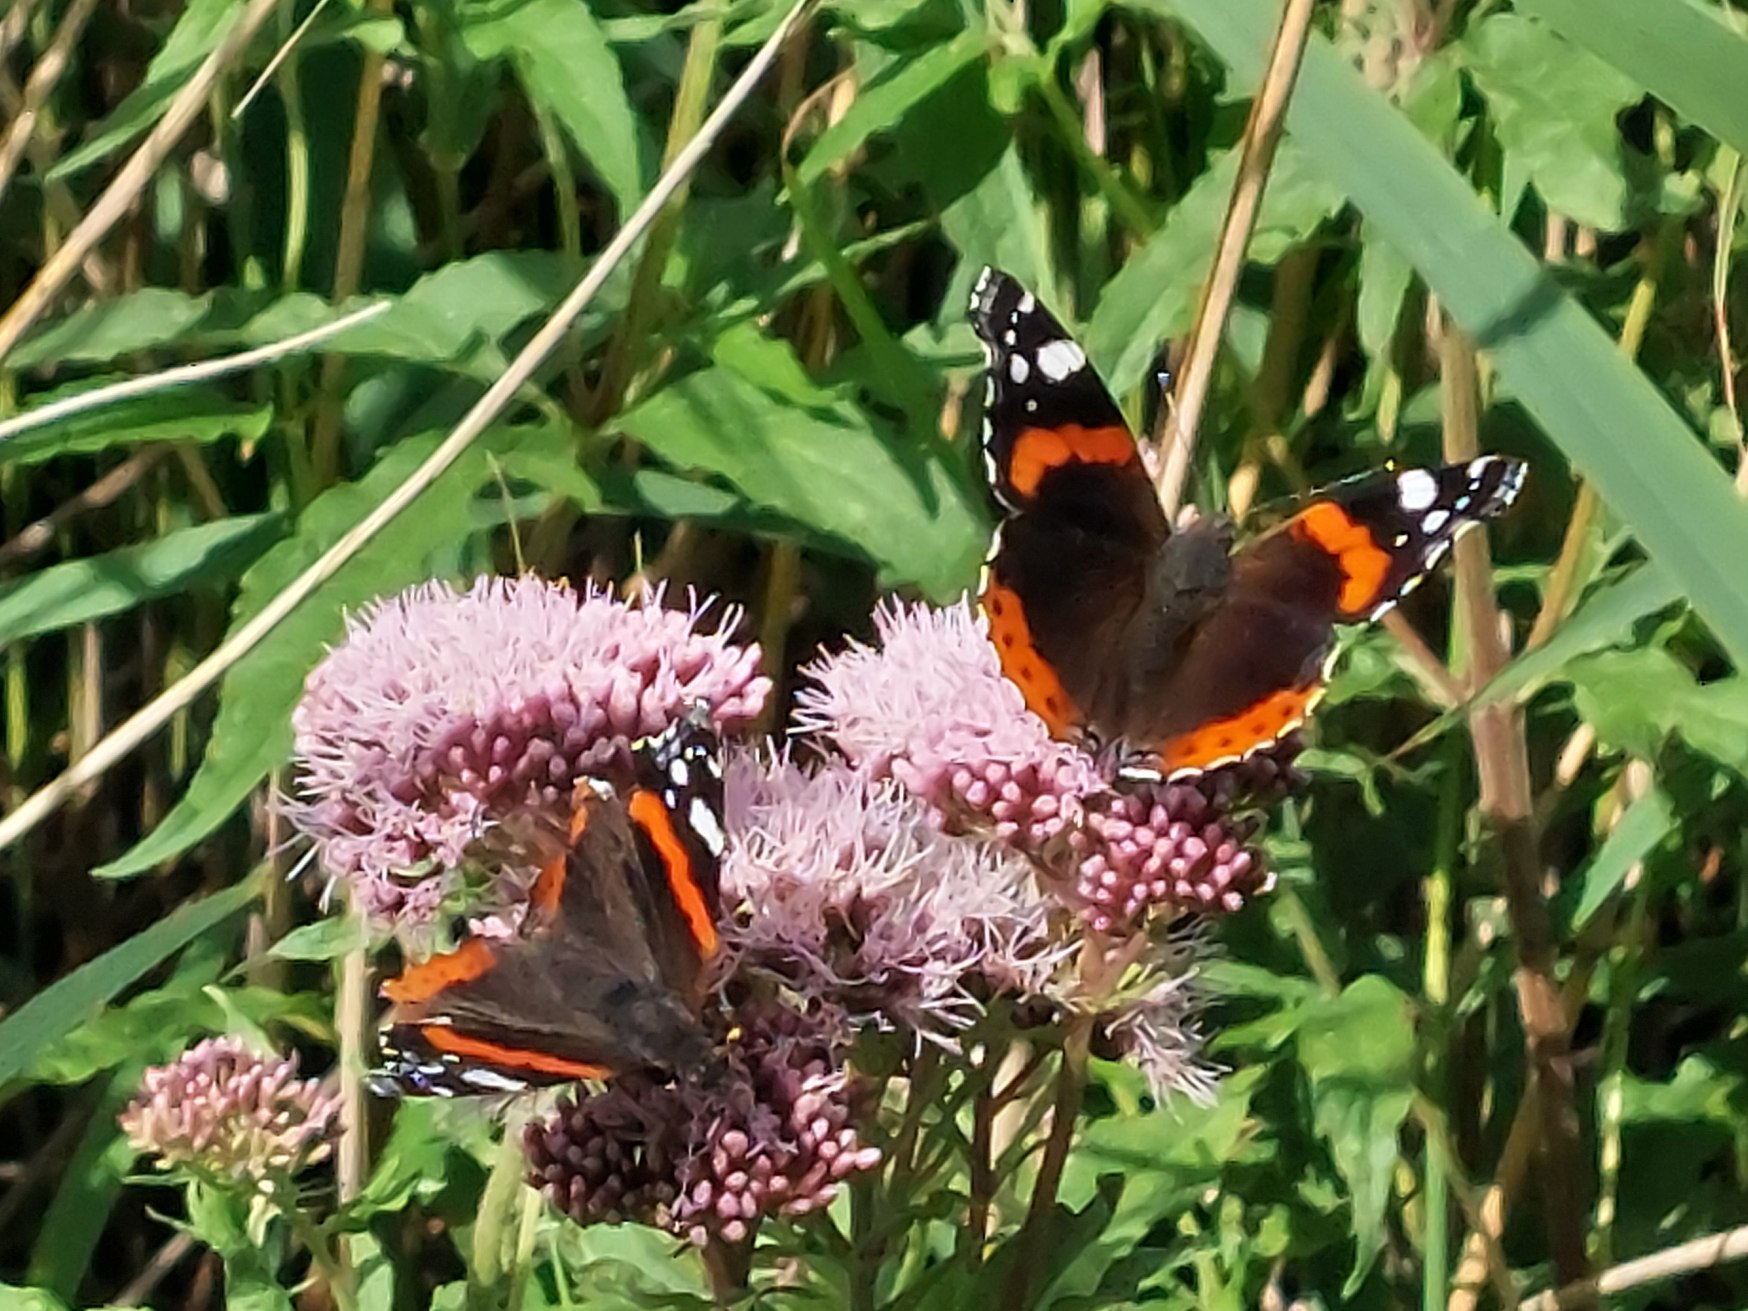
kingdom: Animalia
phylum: Arthropoda
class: Insecta
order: Lepidoptera
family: Nymphalidae
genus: Vanessa
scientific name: Vanessa atalanta
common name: Admiral
